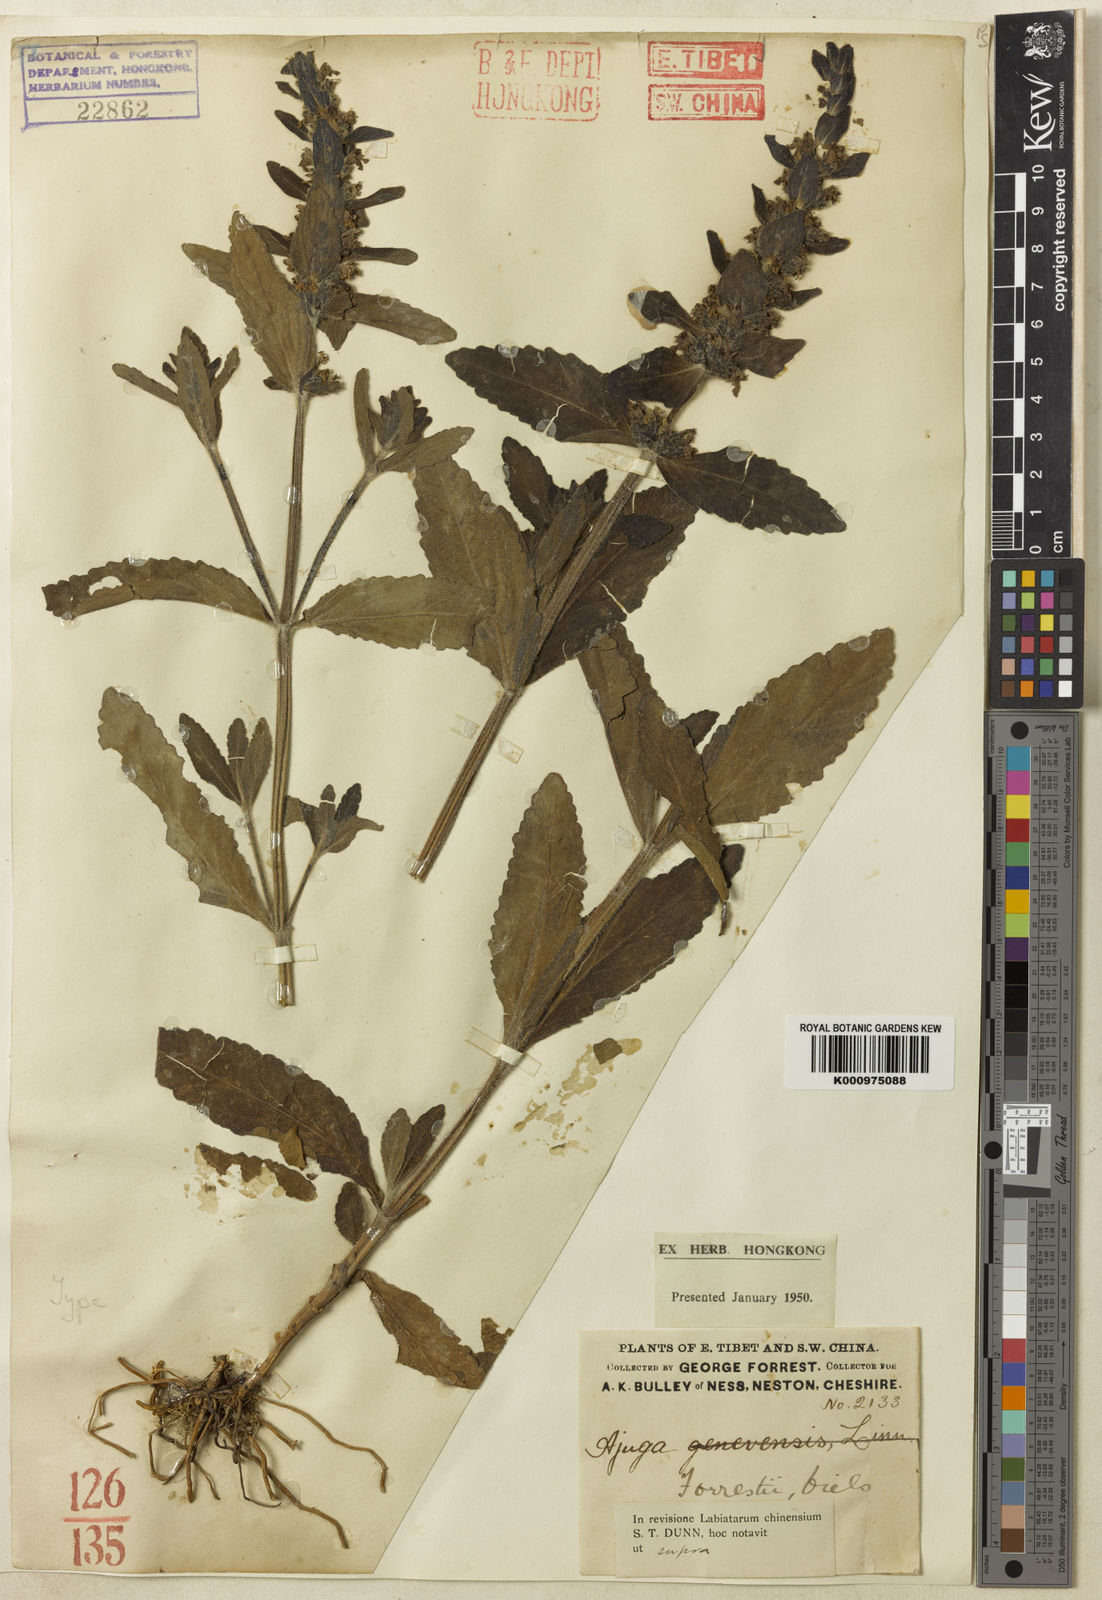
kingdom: Plantae
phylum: Tracheophyta
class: Magnoliopsida
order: Lamiales
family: Lamiaceae
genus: Ajuga
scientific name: Ajuga forrestii
